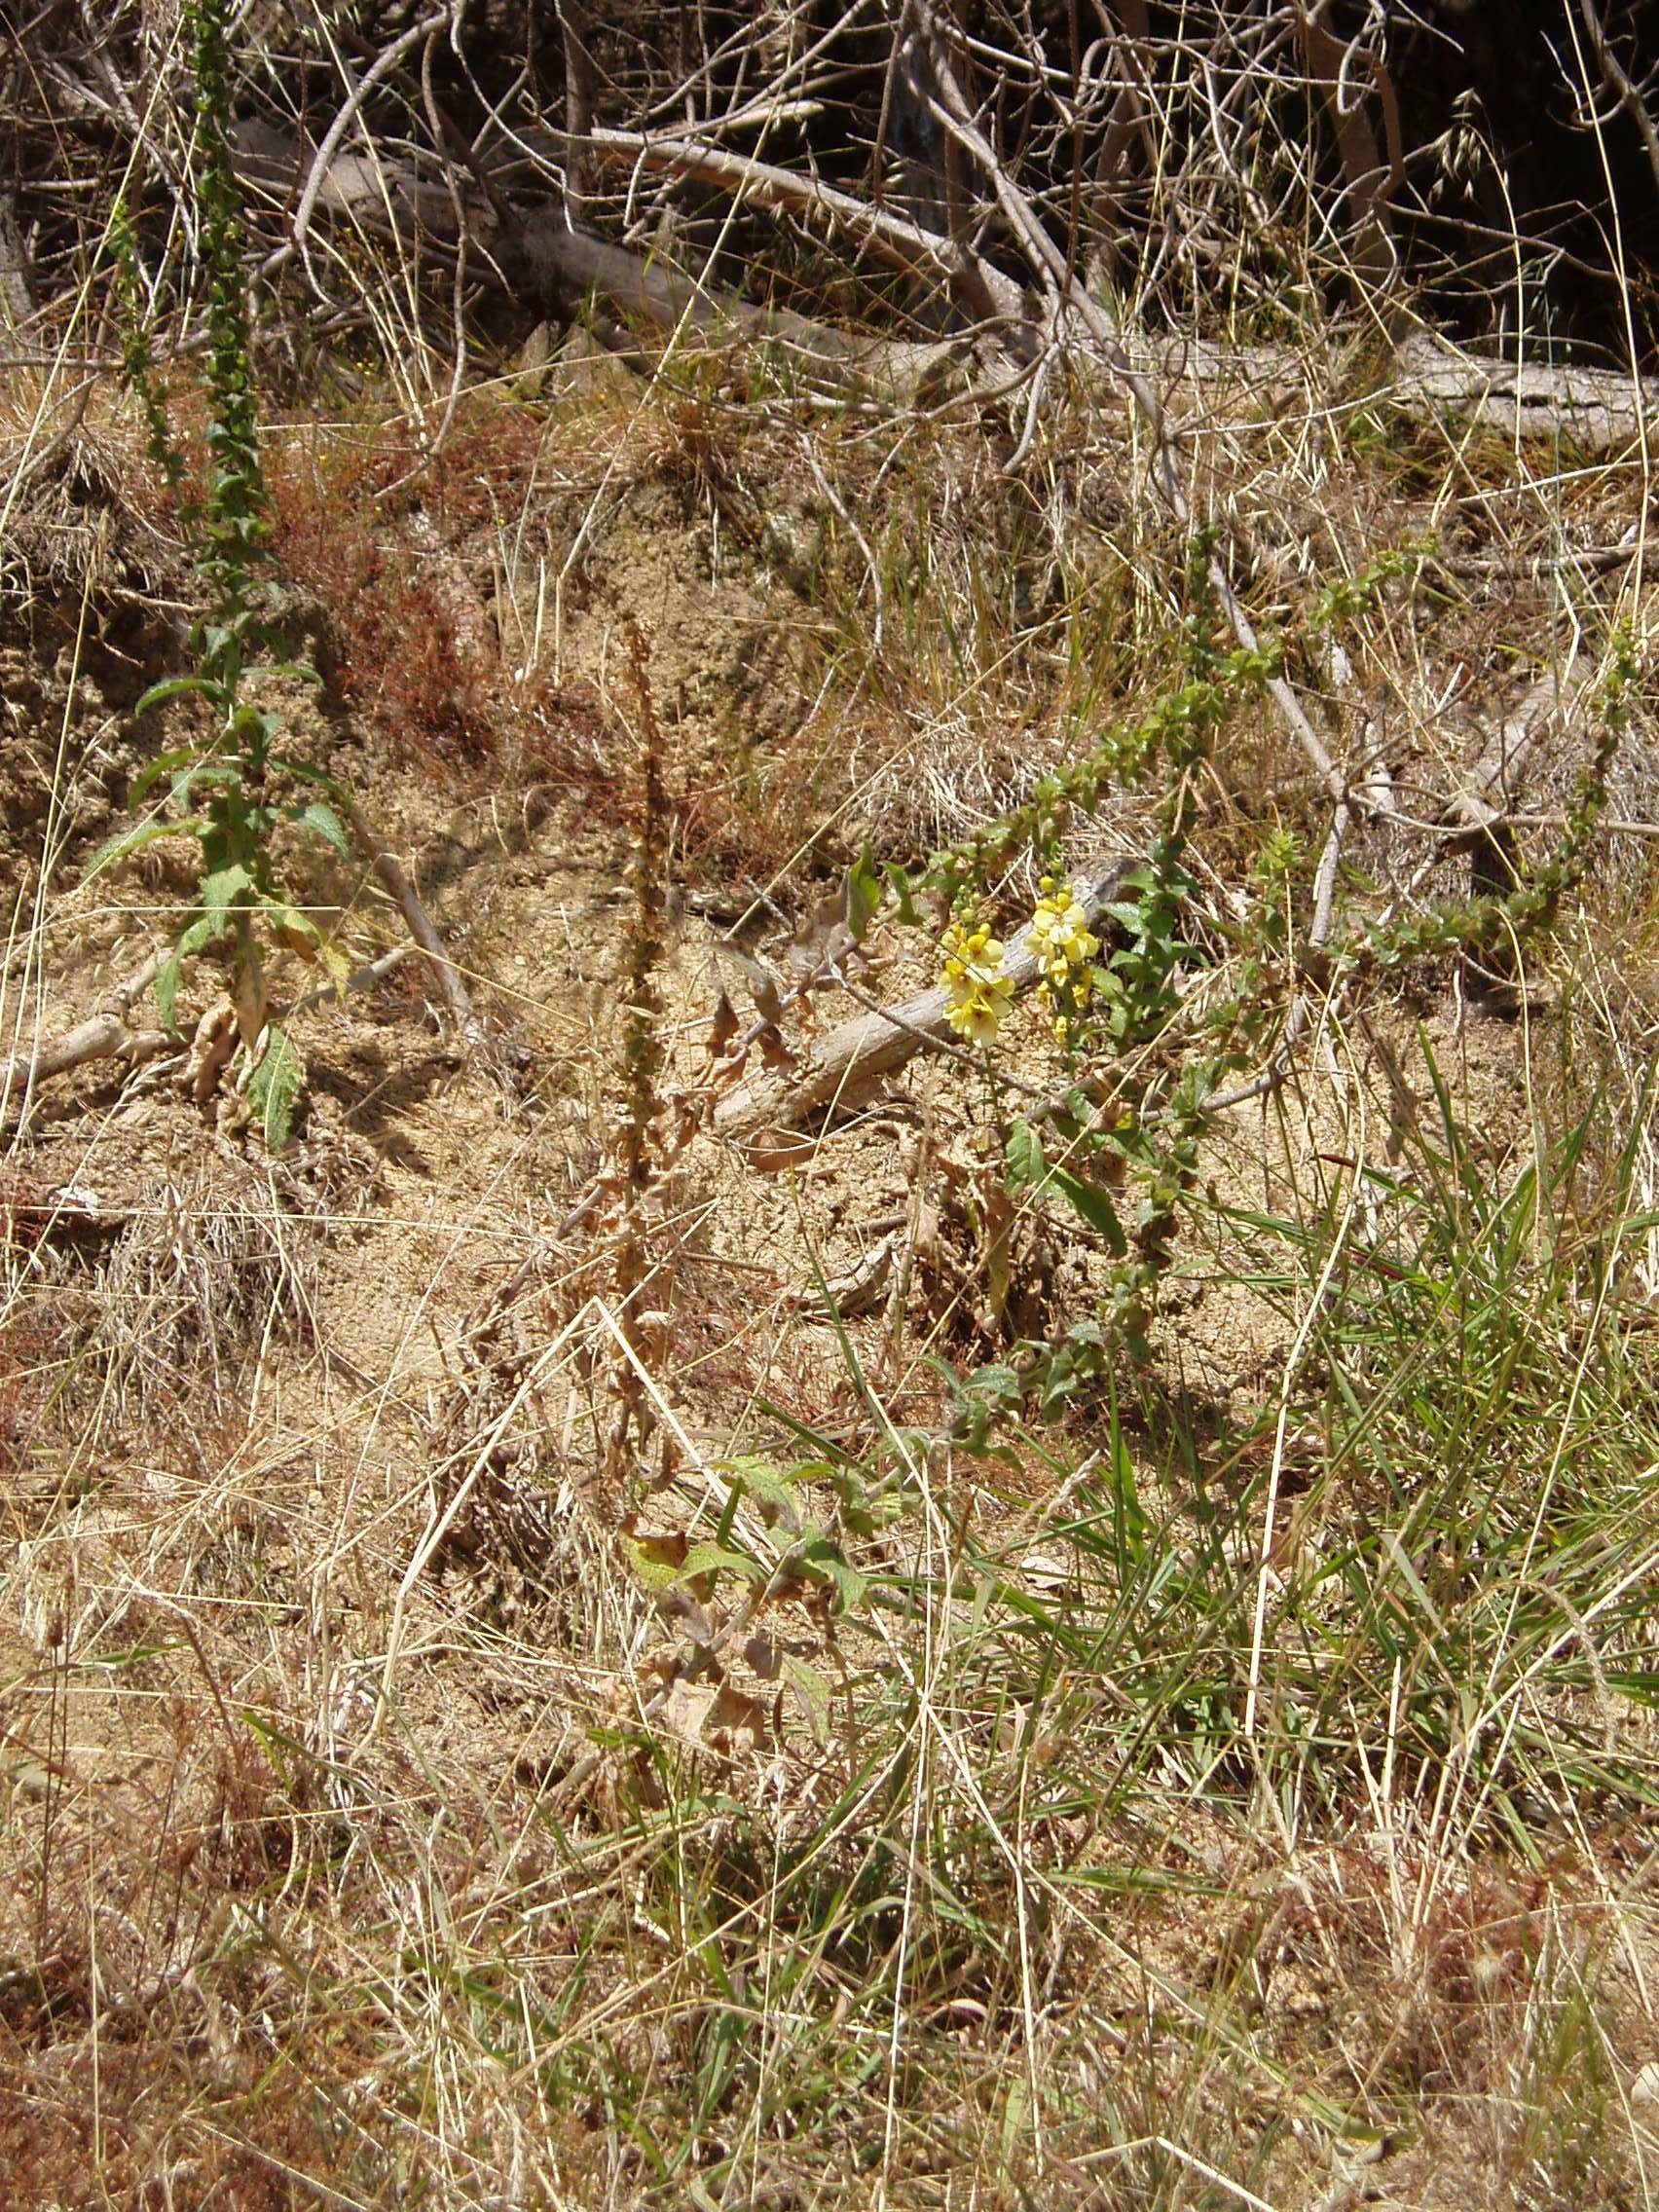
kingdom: Plantae
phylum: Tracheophyta
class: Magnoliopsida
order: Lamiales
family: Scrophulariaceae
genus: Verbascum
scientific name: Verbascum creticum
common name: Cretan mullein
